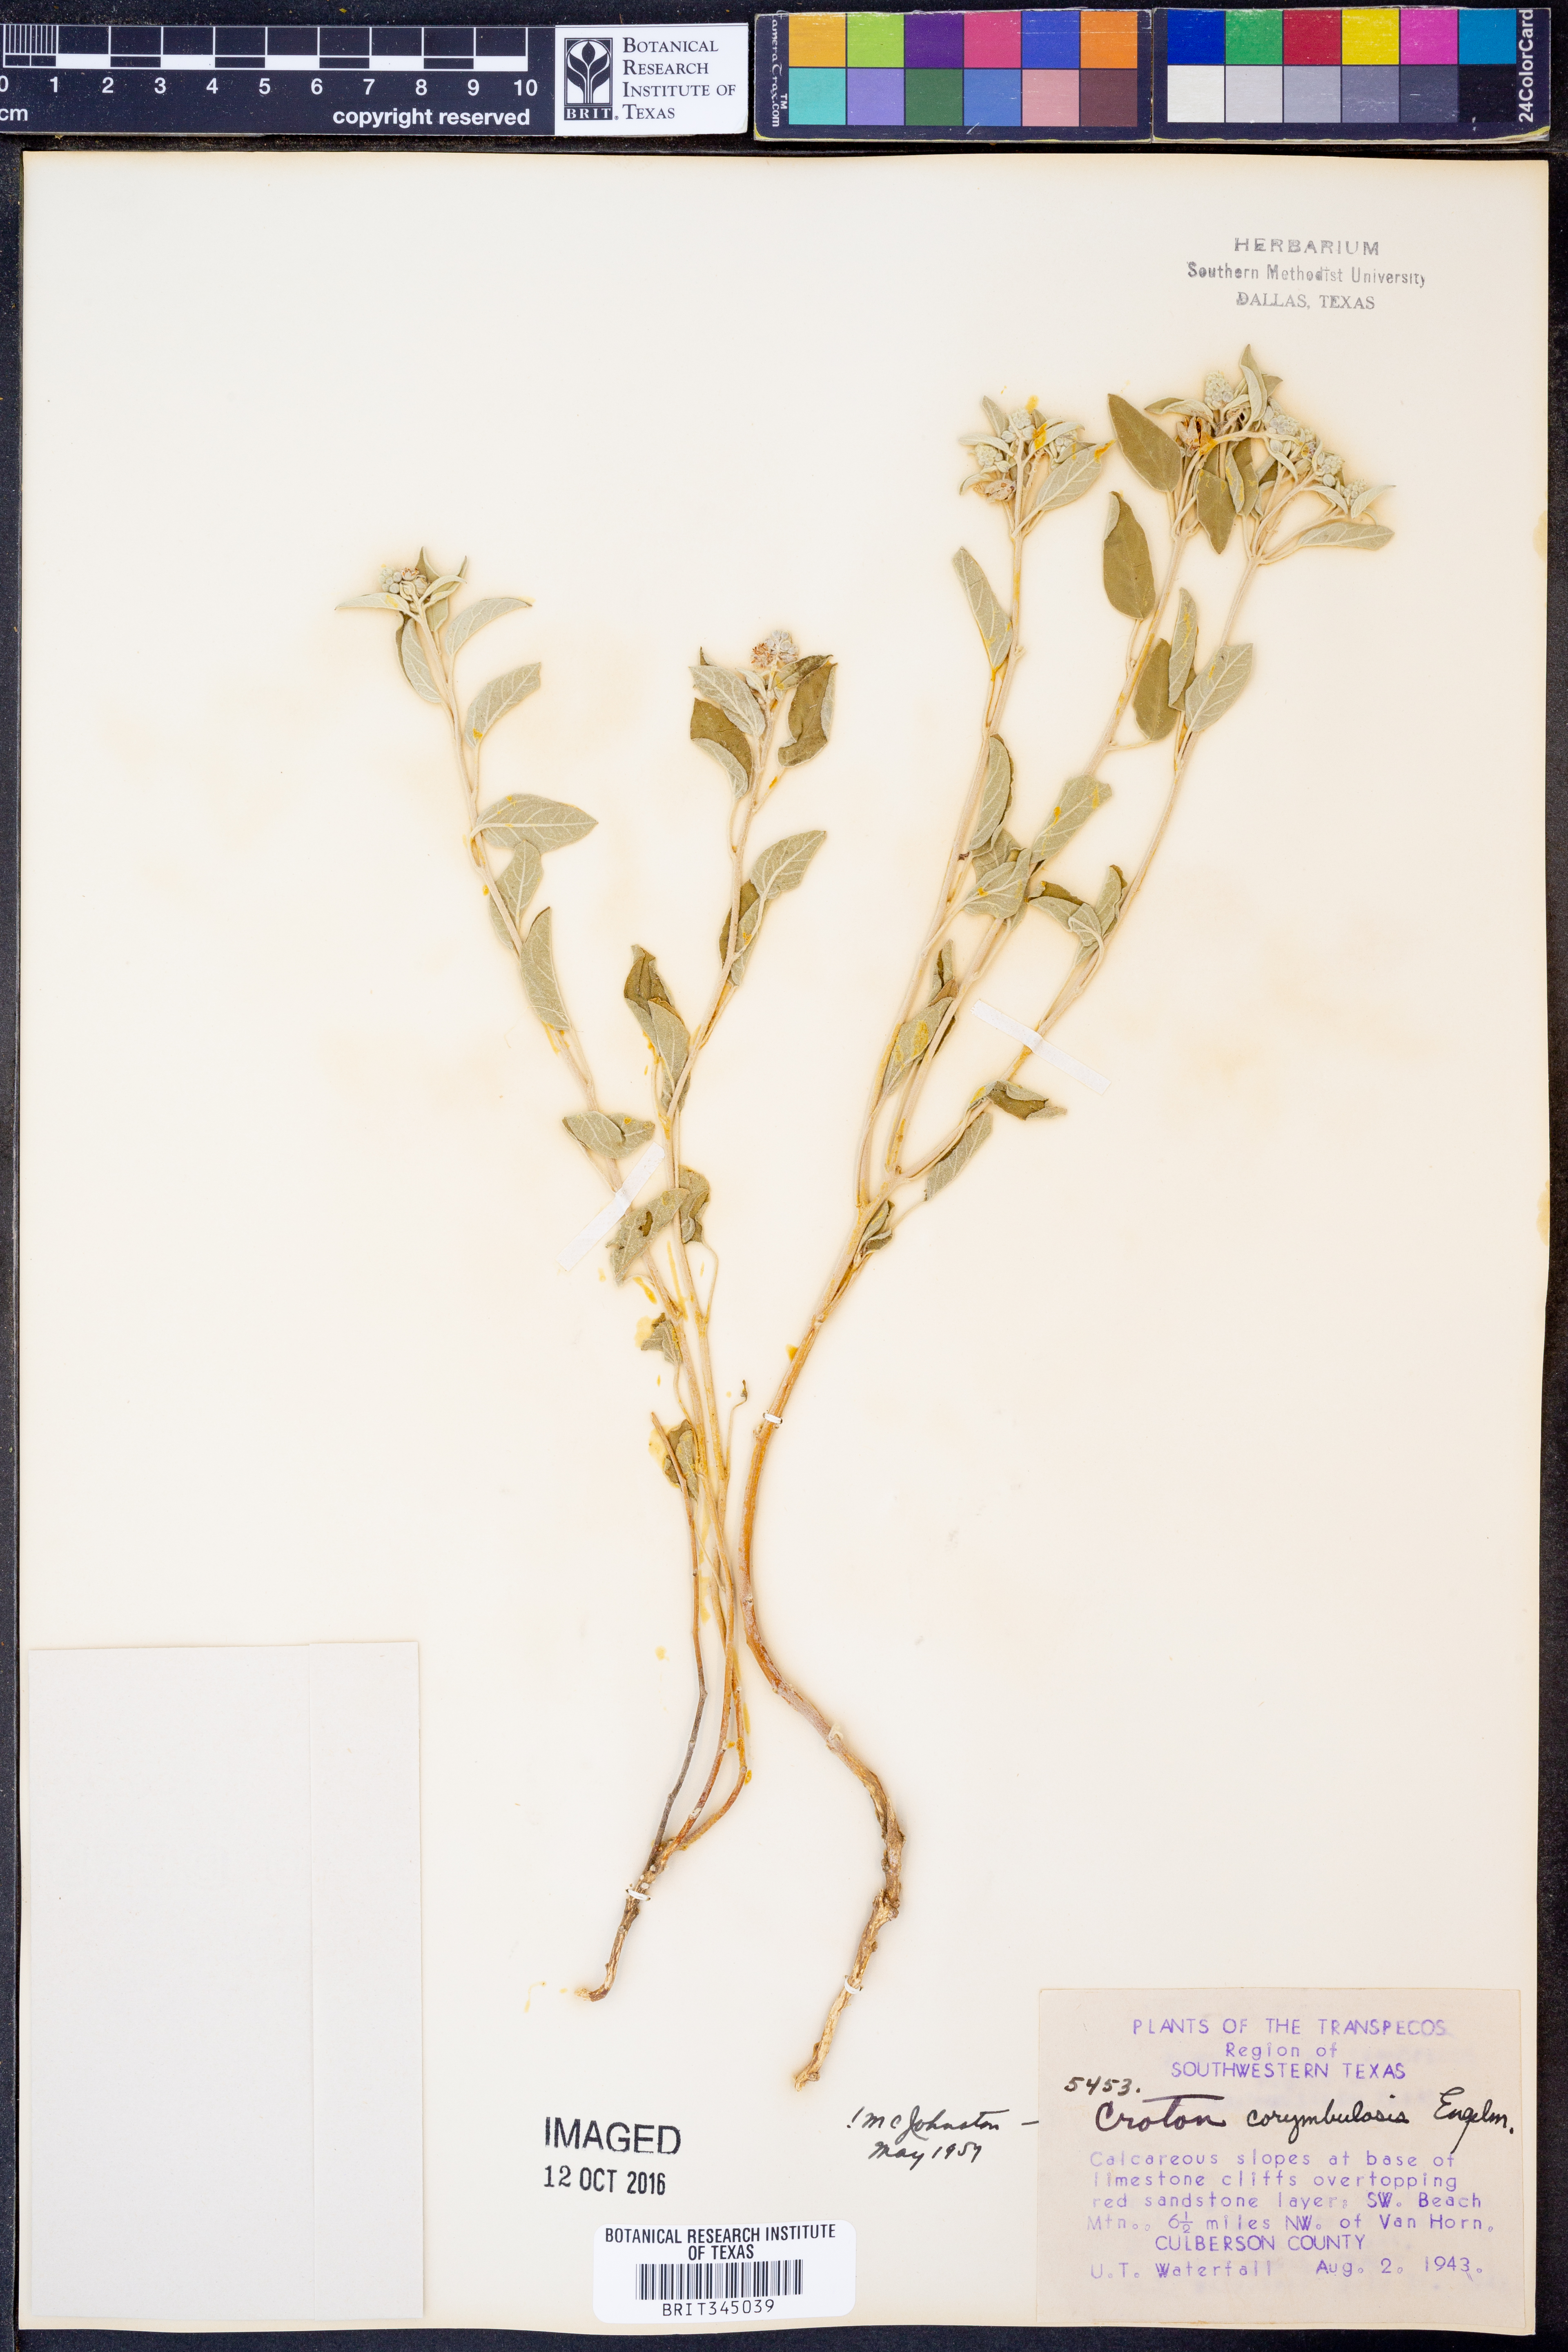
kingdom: Plantae
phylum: Tracheophyta
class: Magnoliopsida
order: Malpighiales
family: Euphorbiaceae
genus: Croton
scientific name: Croton pottsii
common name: Leatherweed
